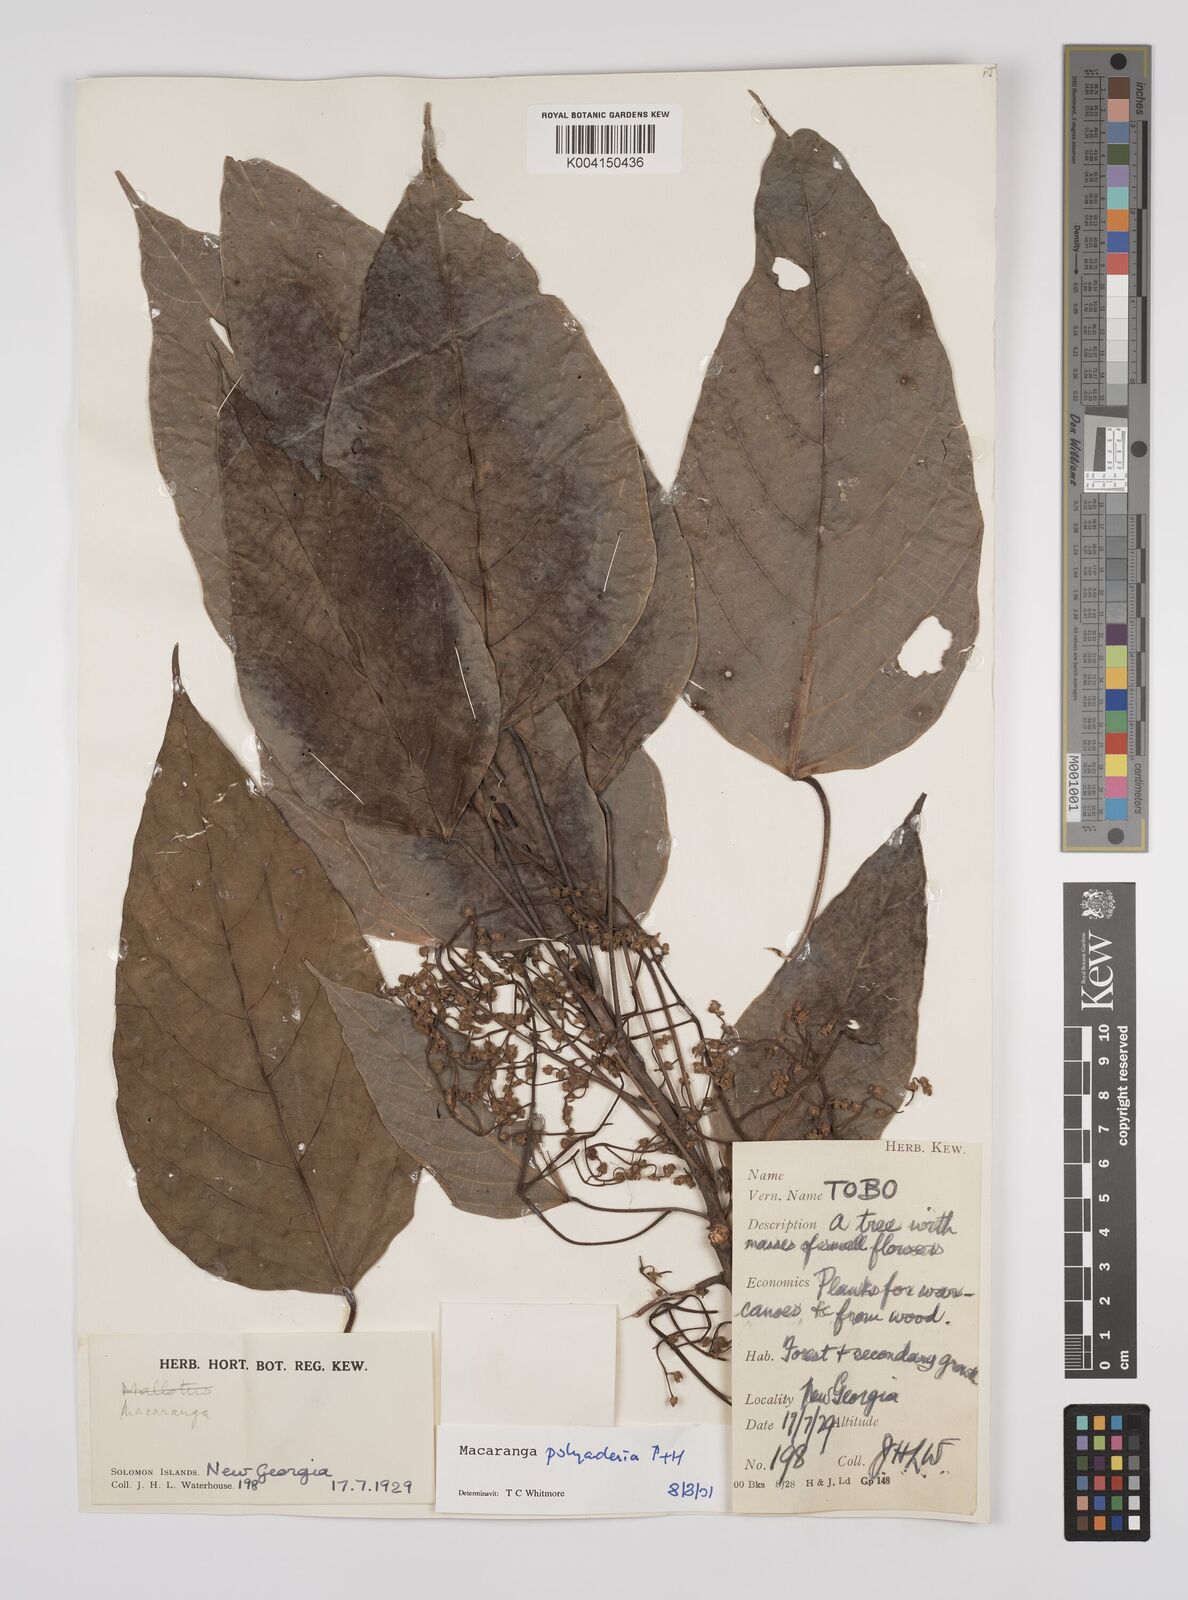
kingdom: Plantae
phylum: Tracheophyta
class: Magnoliopsida
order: Malpighiales
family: Euphorbiaceae
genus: Macaranga
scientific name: Macaranga polyadenia
